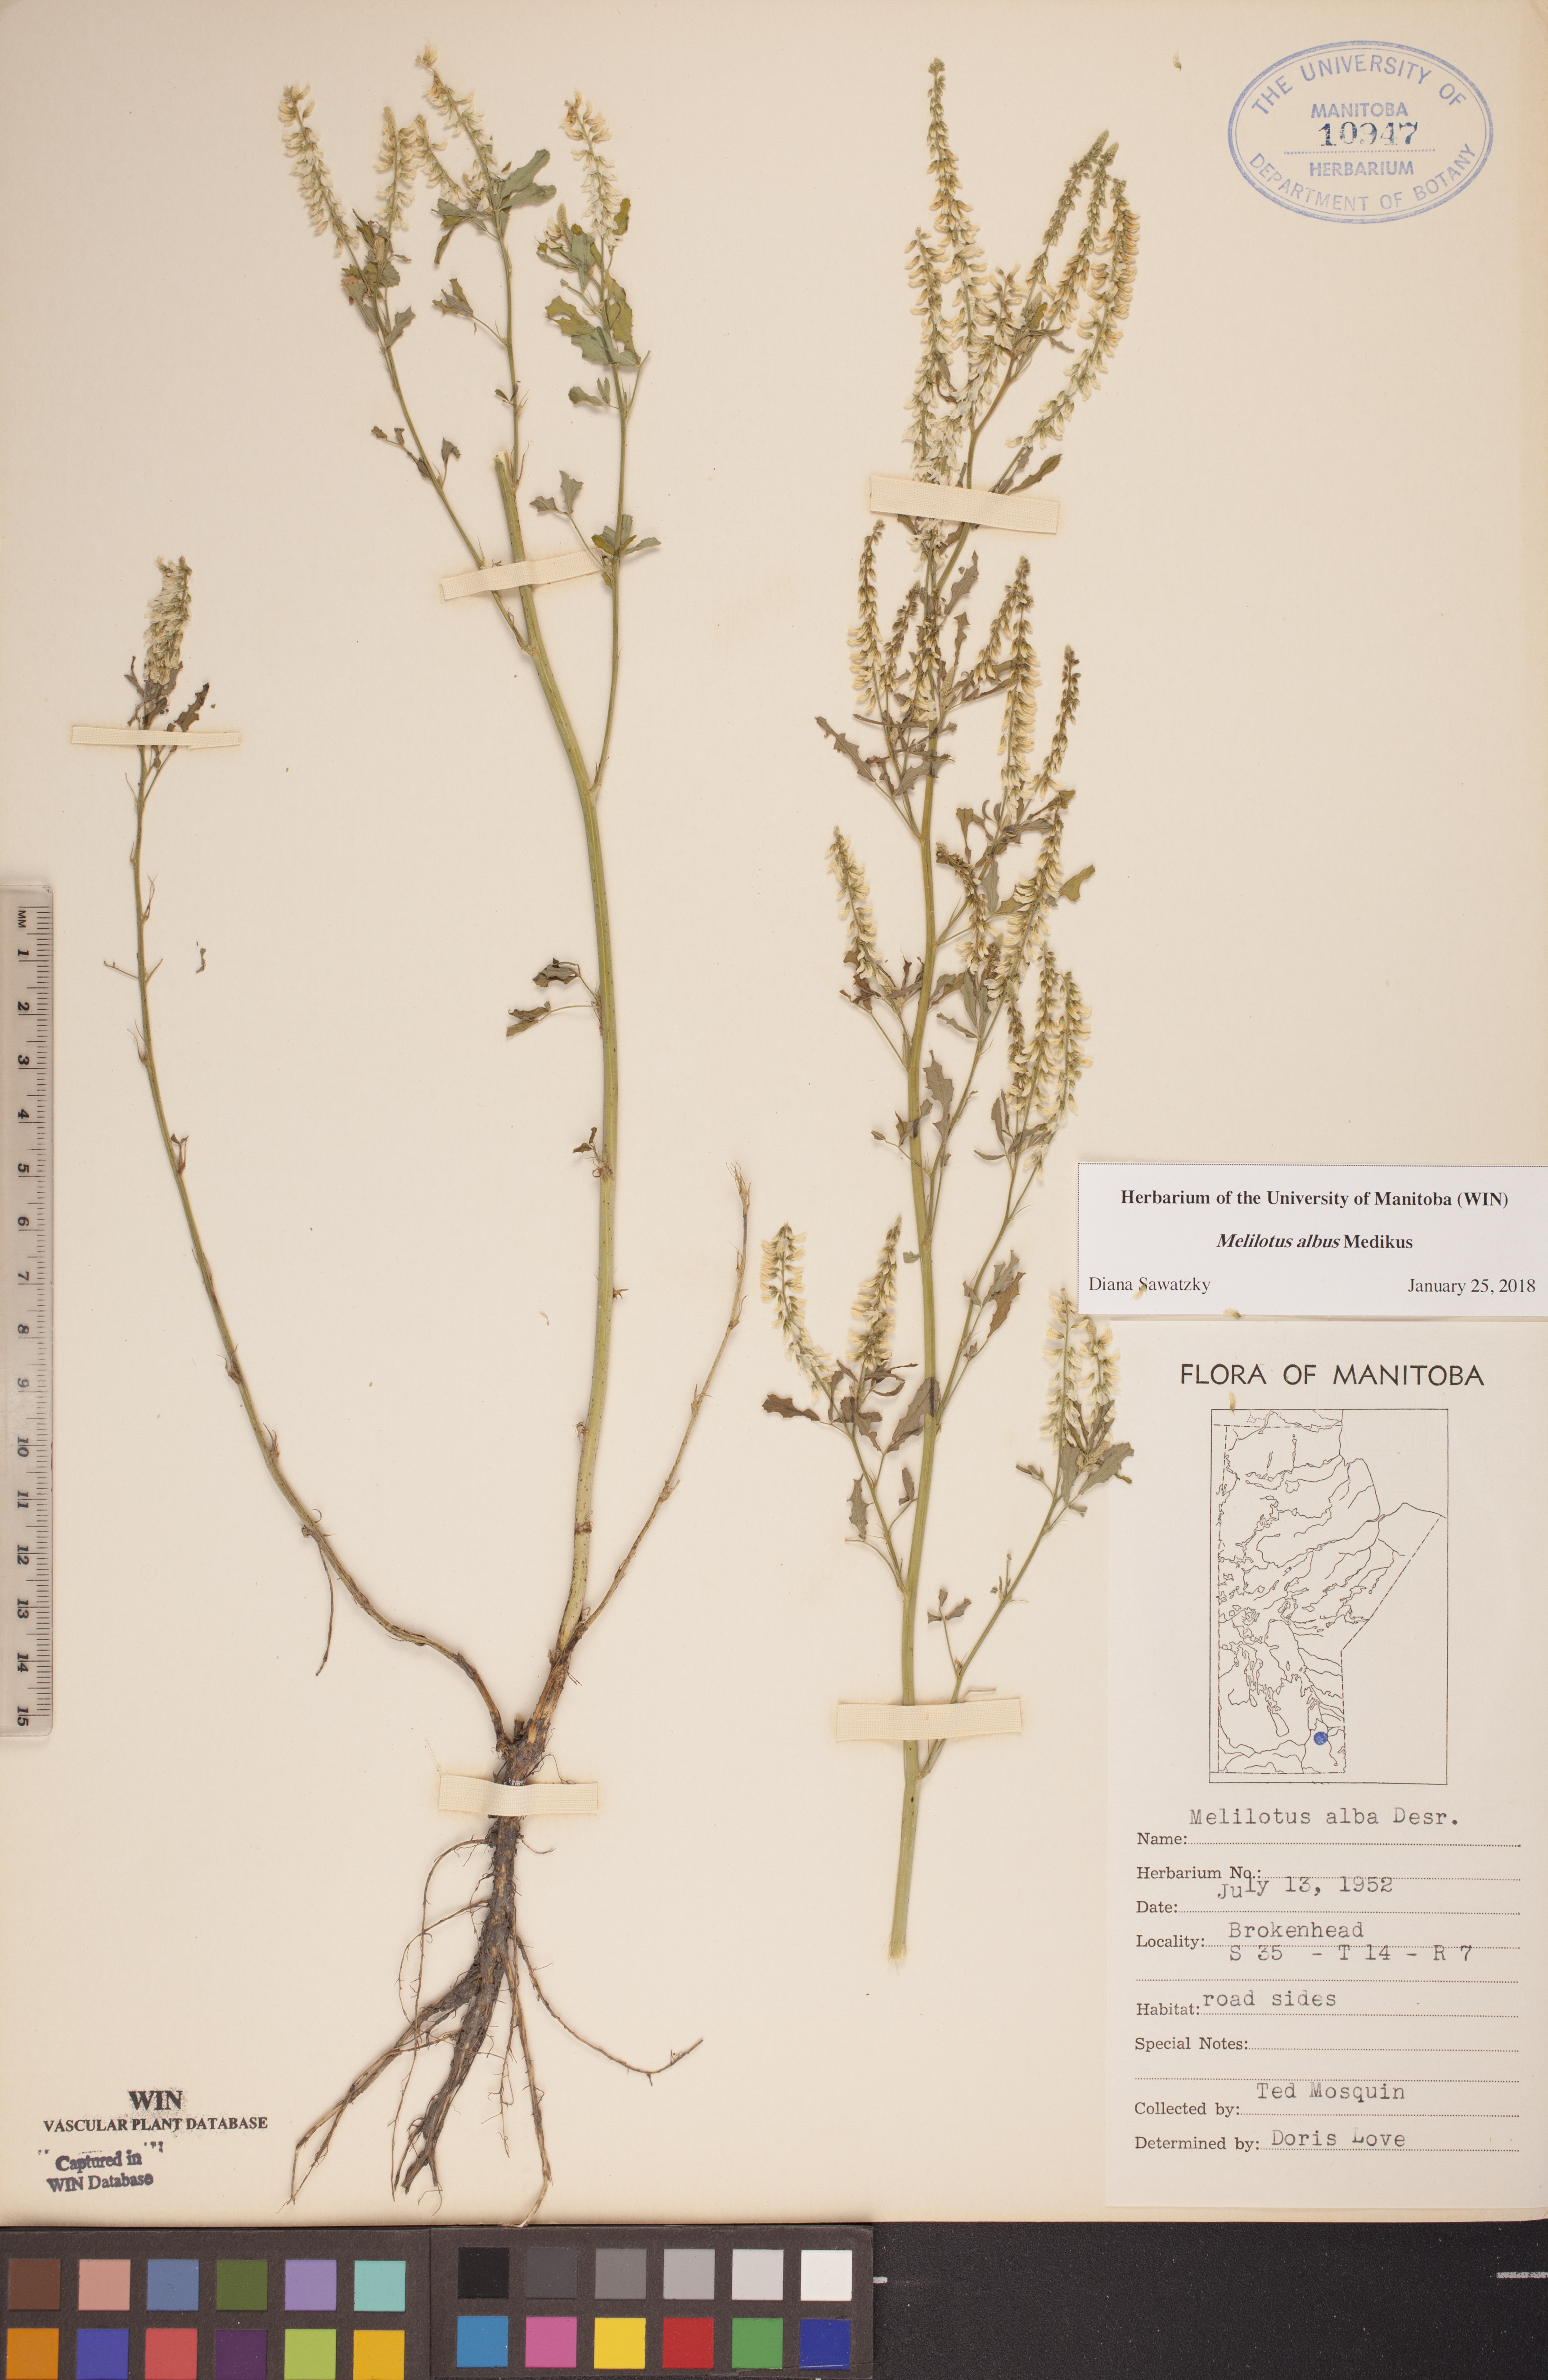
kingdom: Plantae
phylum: Tracheophyta
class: Magnoliopsida
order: Fabales
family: Fabaceae
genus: Melilotus
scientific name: Melilotus albus
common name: White melilot
